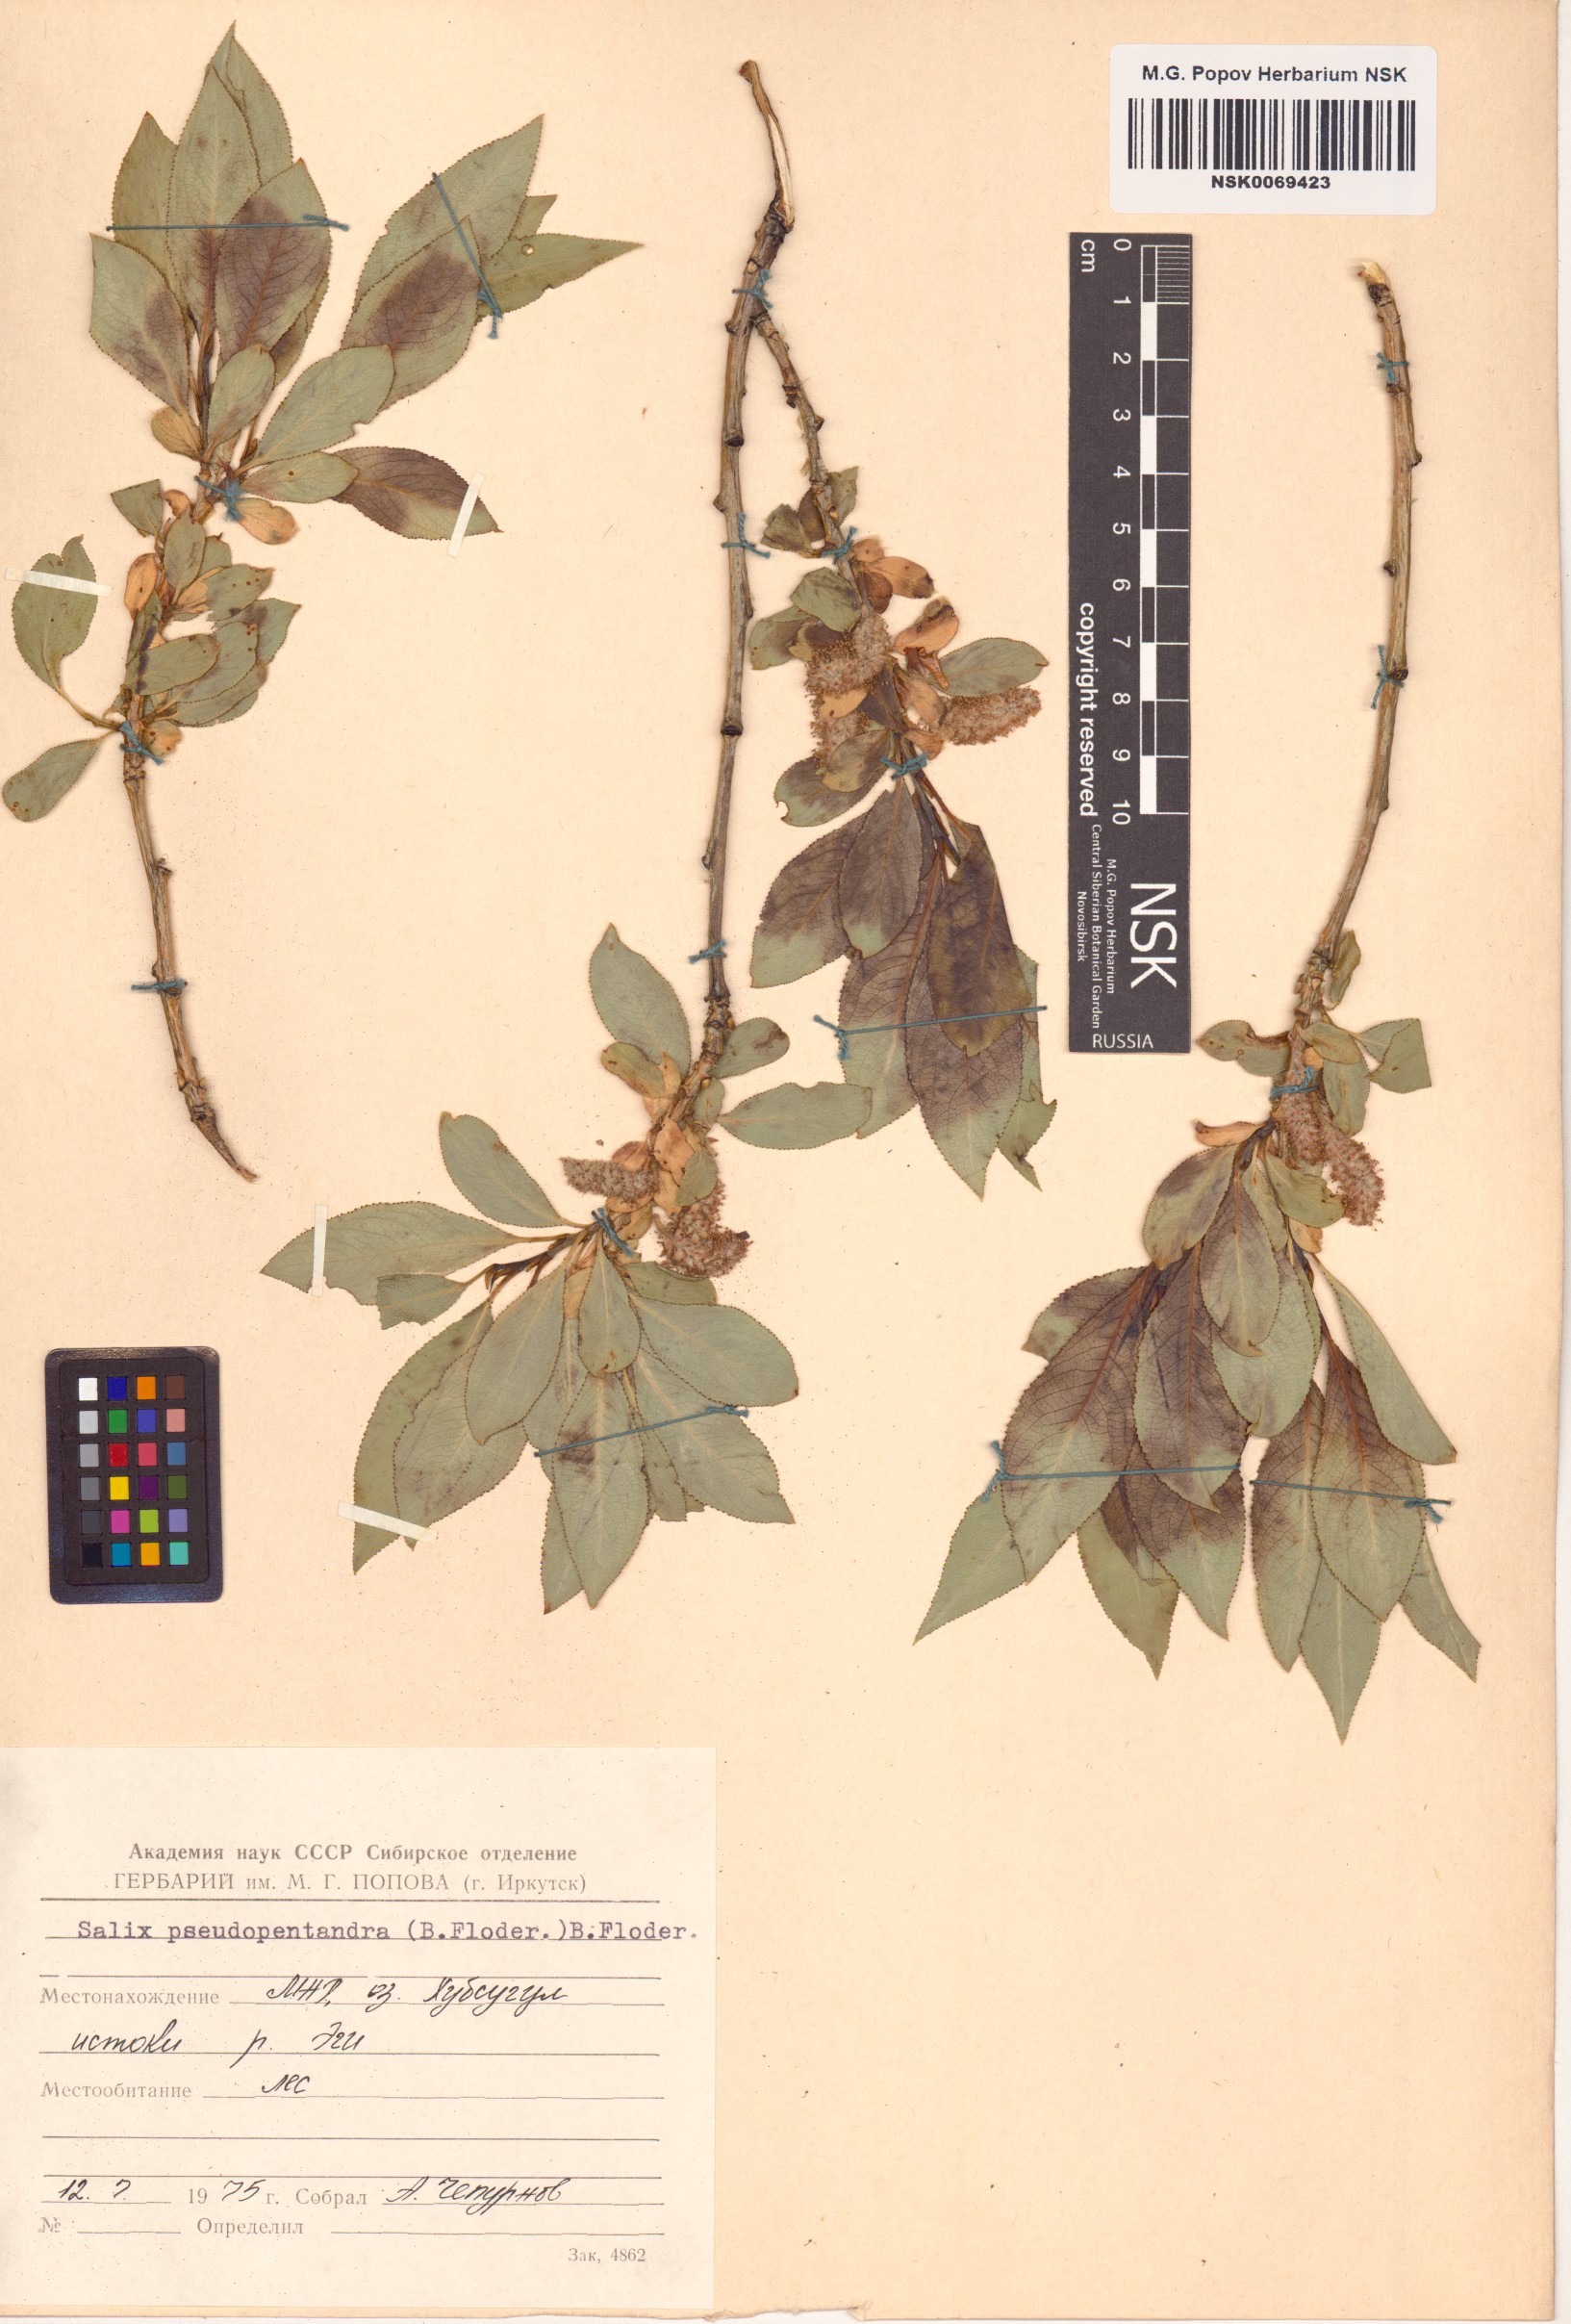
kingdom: Plantae
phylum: Tracheophyta
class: Magnoliopsida
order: Malpighiales
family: Salicaceae
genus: Salix
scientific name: Salix pseudopentandra
